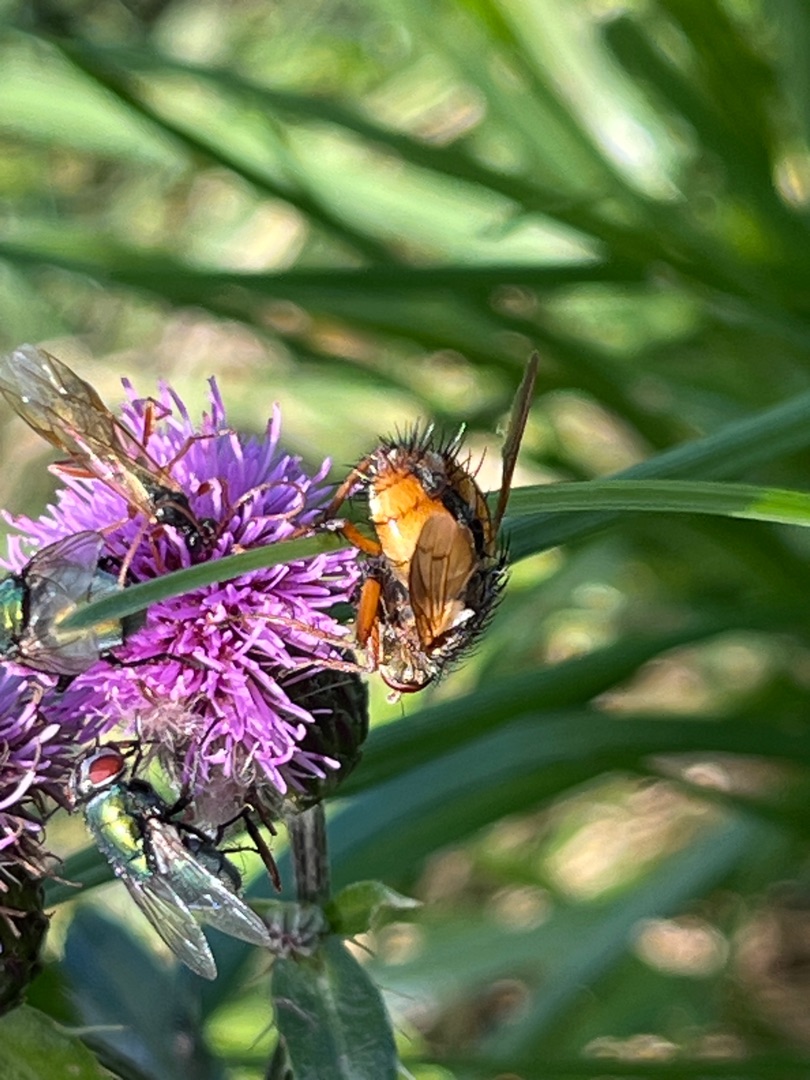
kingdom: Animalia
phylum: Arthropoda
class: Insecta
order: Diptera
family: Tachinidae
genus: Tachina
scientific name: Tachina fera
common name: Mellemfluen oskar
